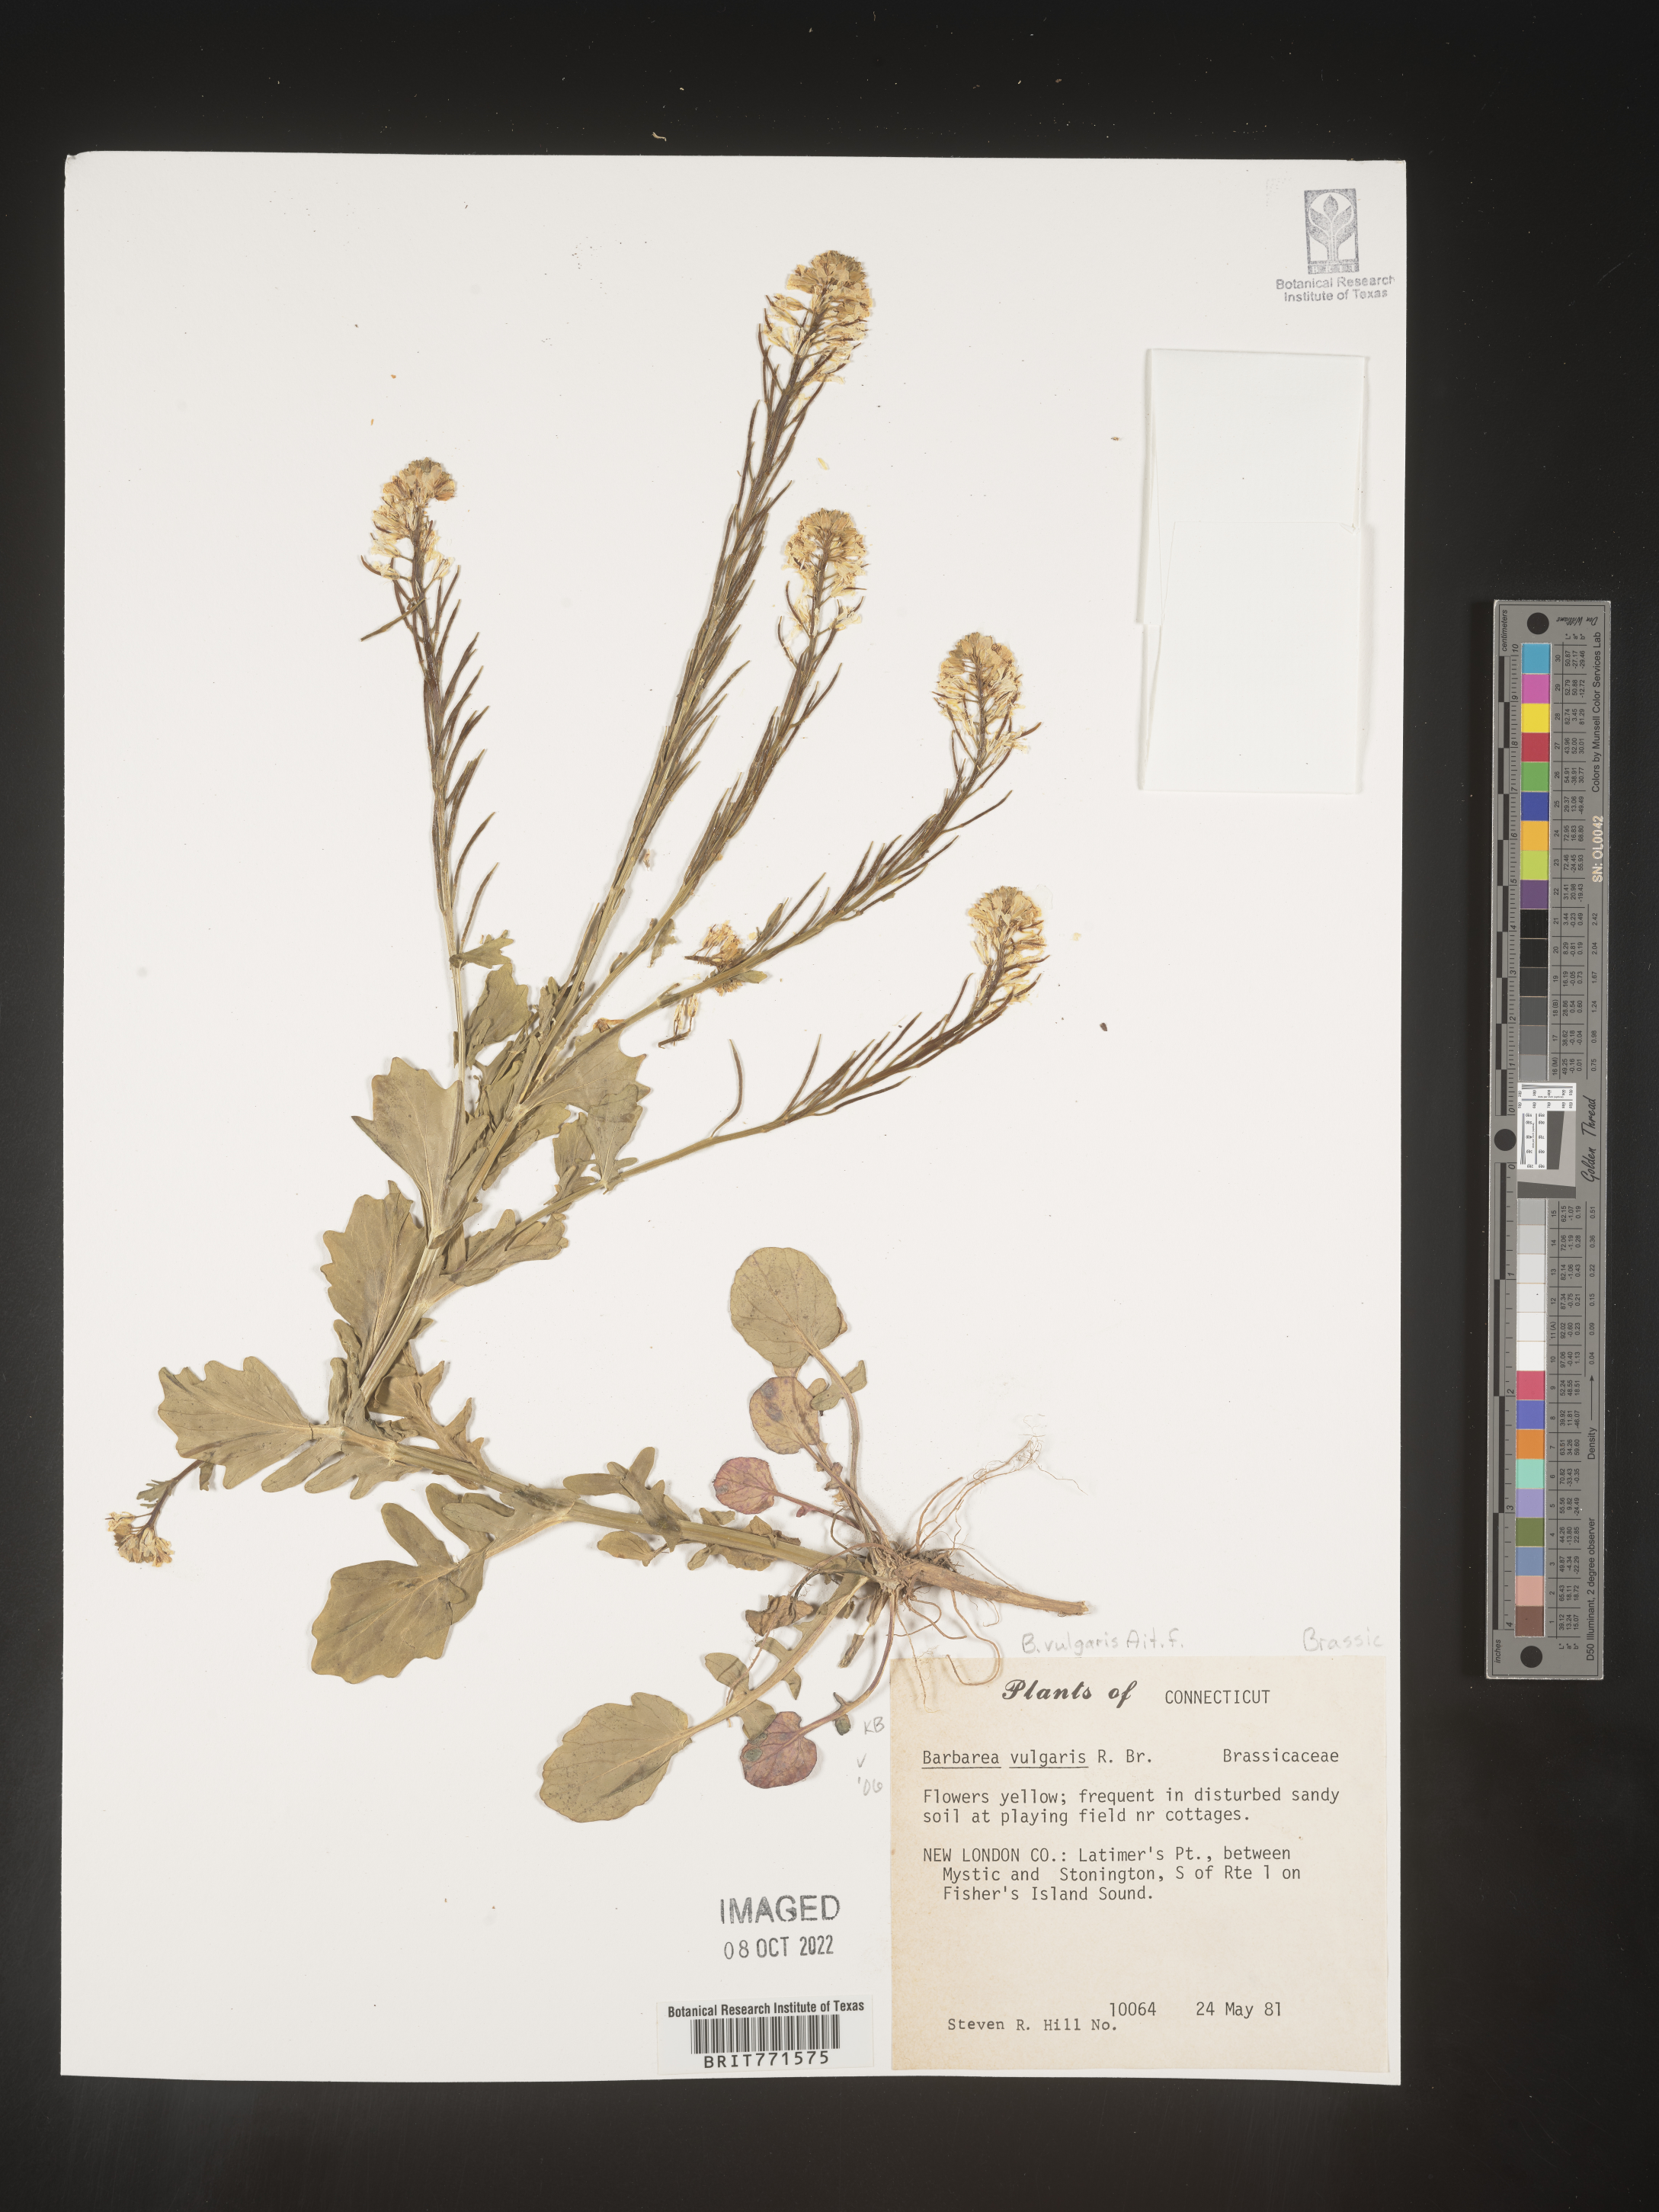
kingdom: Plantae
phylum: Tracheophyta
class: Magnoliopsida
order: Brassicales
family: Brassicaceae
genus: Barbarea
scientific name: Barbarea vulgaris
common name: Cressy-greens
